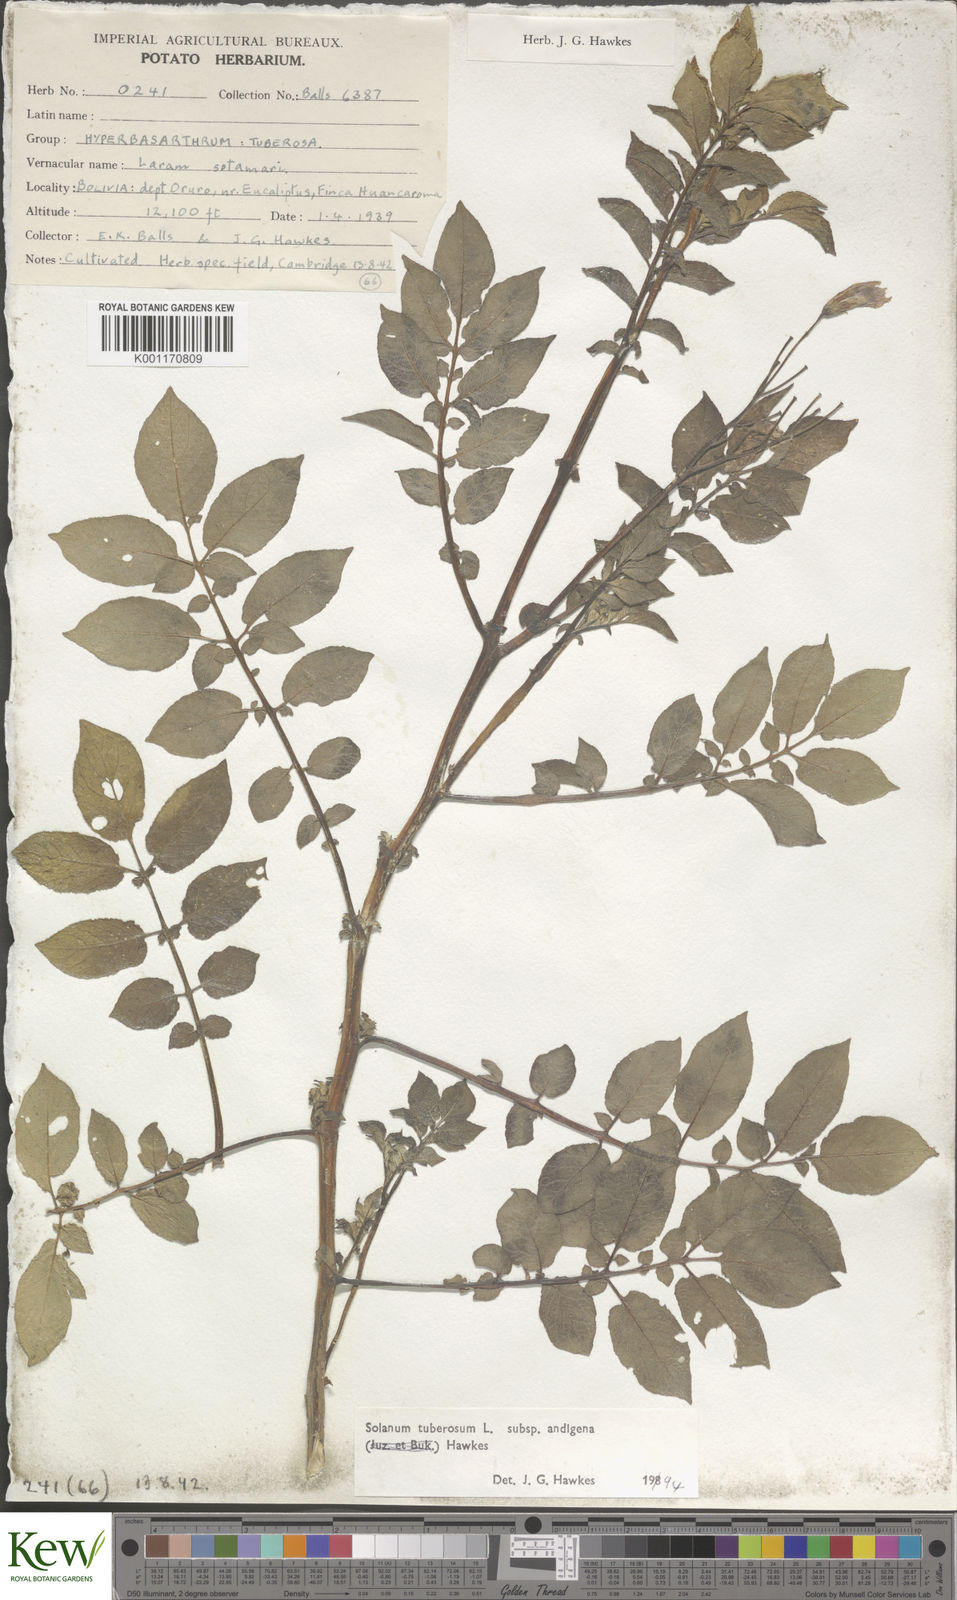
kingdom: Plantae
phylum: Tracheophyta
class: Magnoliopsida
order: Solanales
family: Solanaceae
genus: Solanum
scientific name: Solanum tuberosum
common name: Potato
